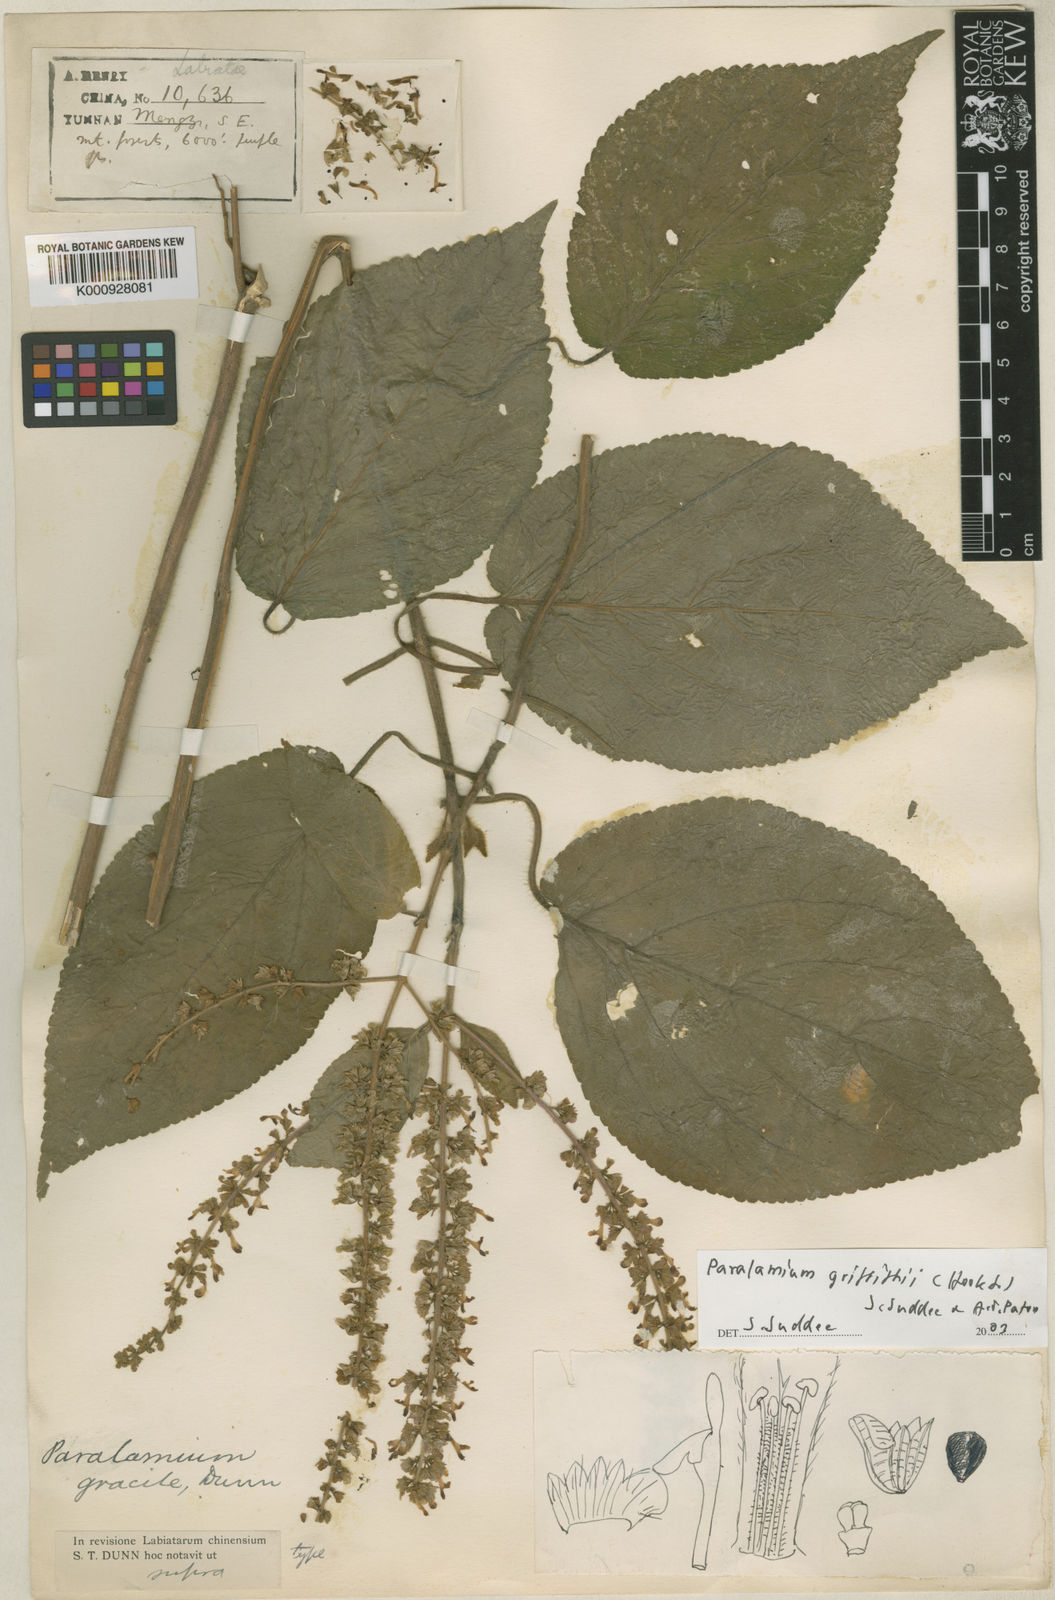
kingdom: Plantae
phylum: Tracheophyta
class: Magnoliopsida
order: Lamiales
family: Lamiaceae
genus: Paralamium
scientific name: Paralamium griffithii
